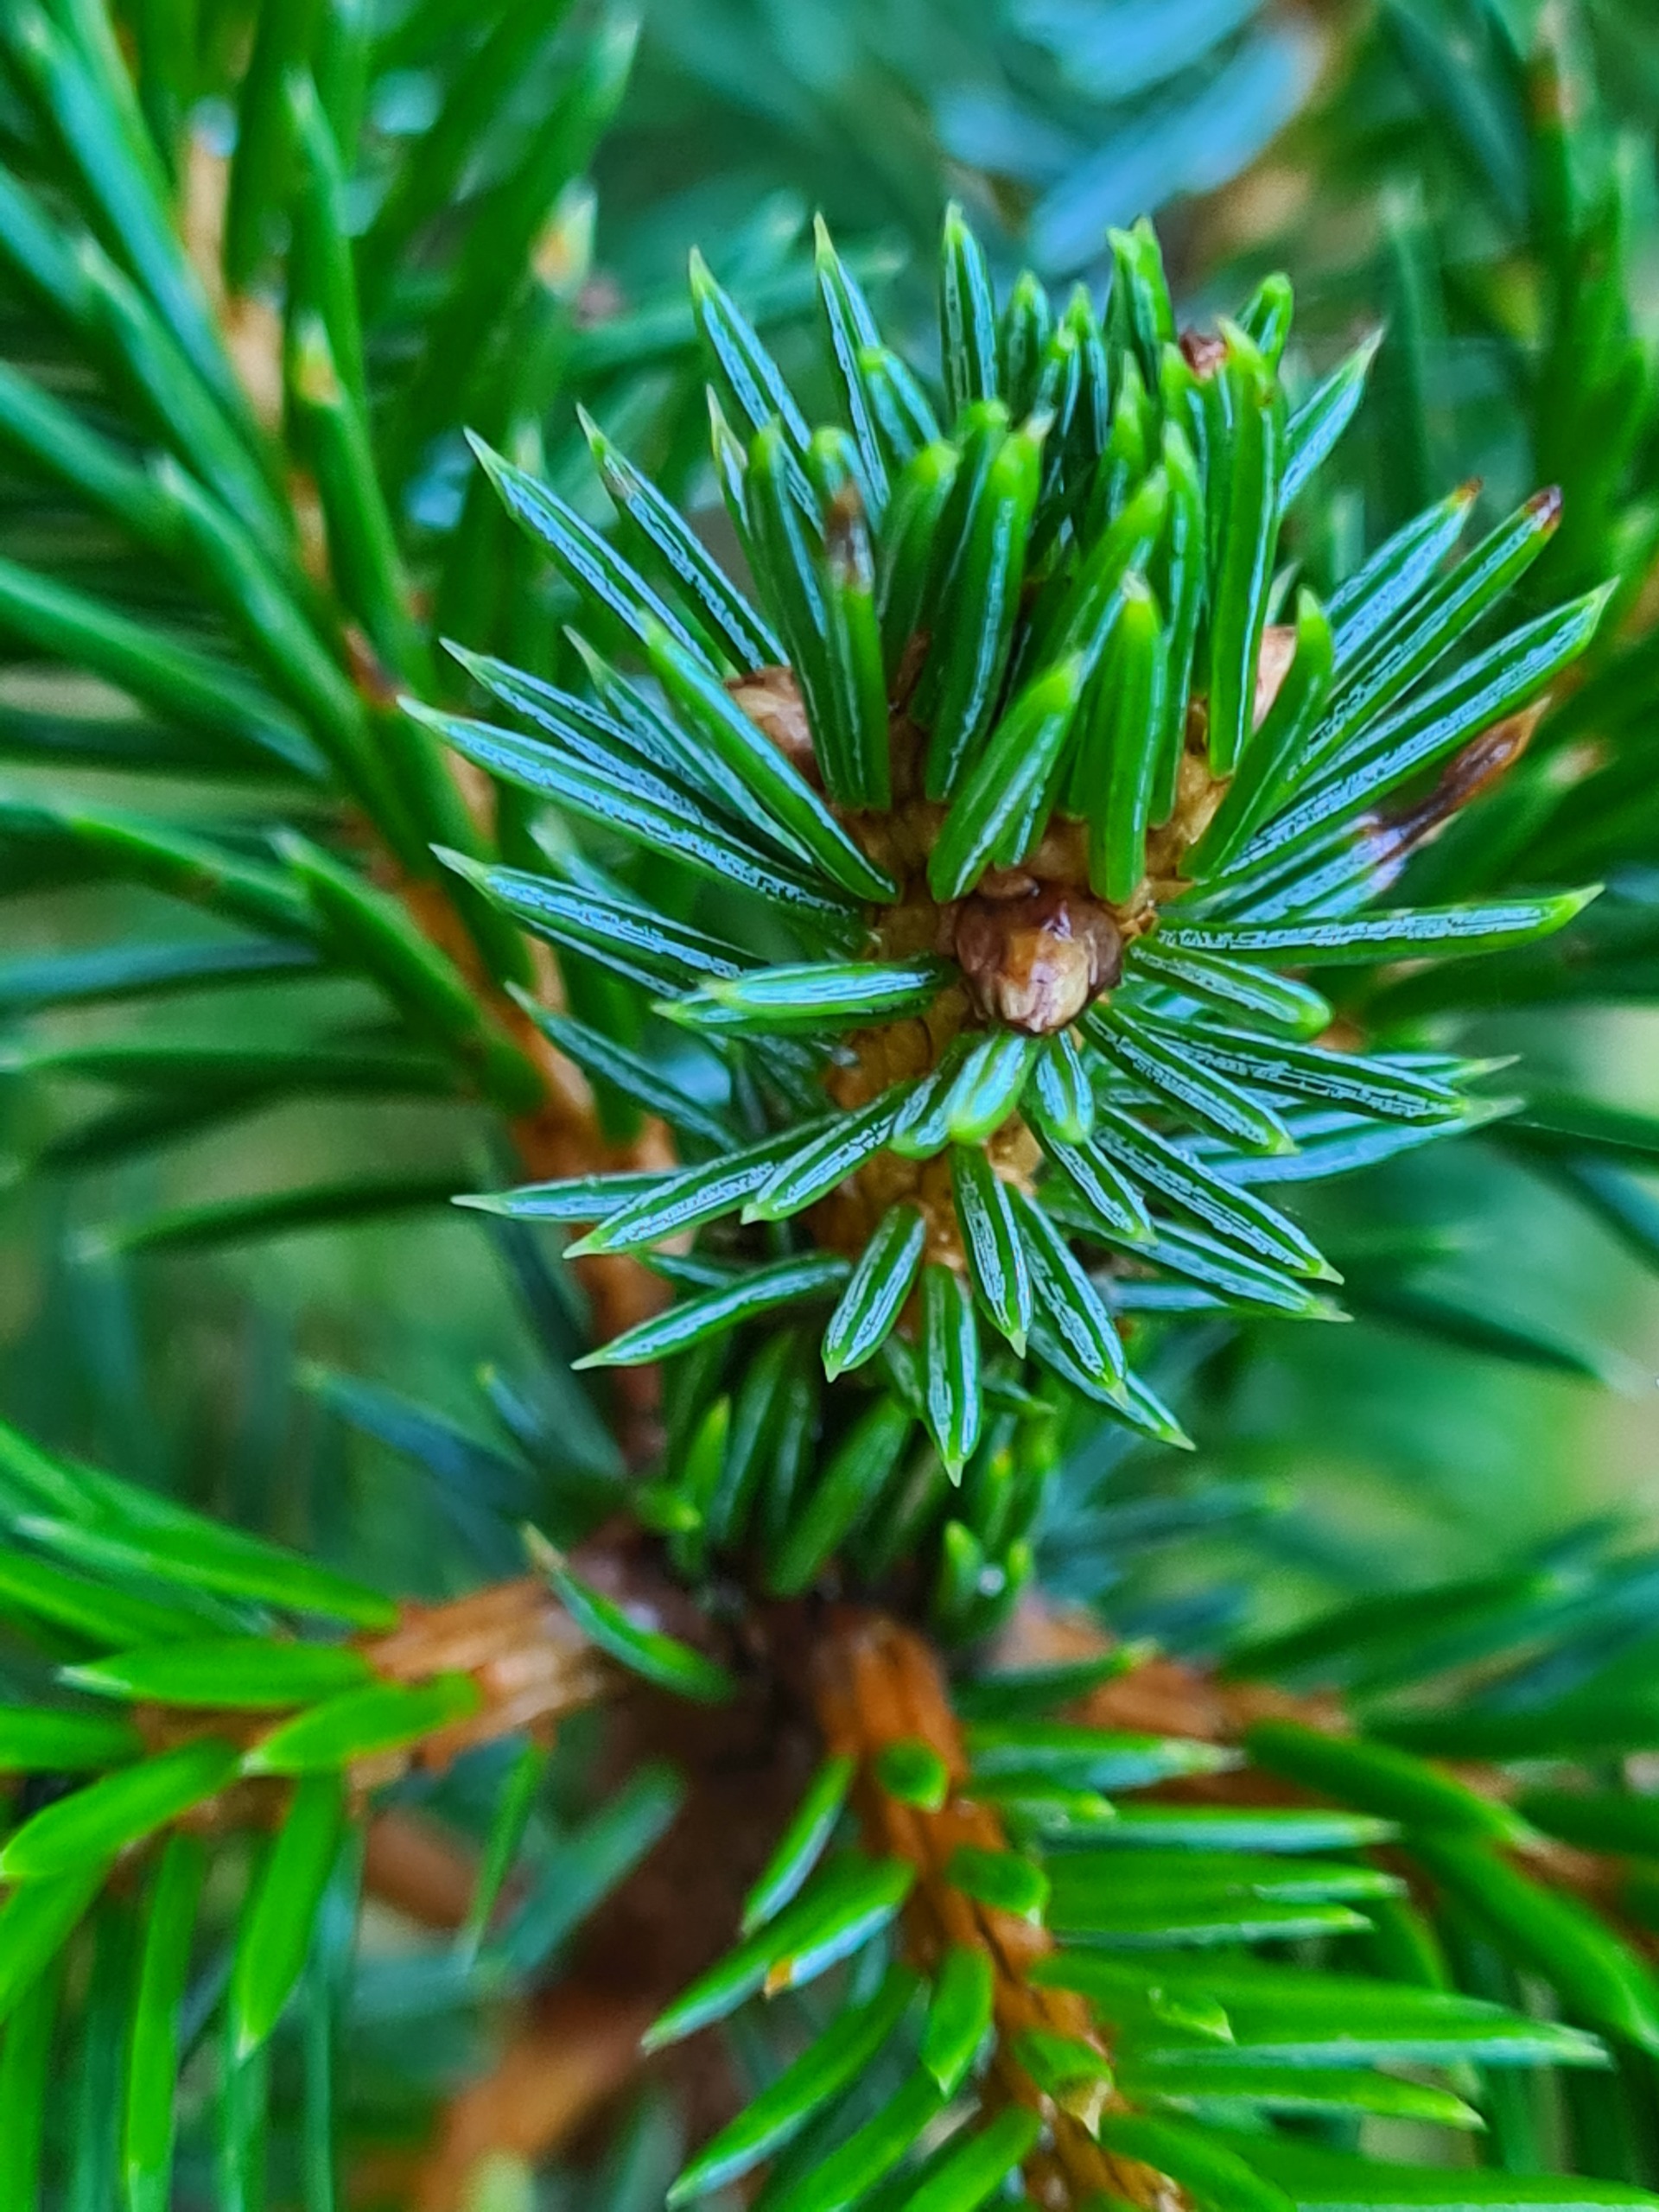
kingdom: Plantae
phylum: Tracheophyta
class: Pinopsida
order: Pinales
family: Pinaceae
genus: Picea
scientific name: Picea sitchensis
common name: Sitka-gran
